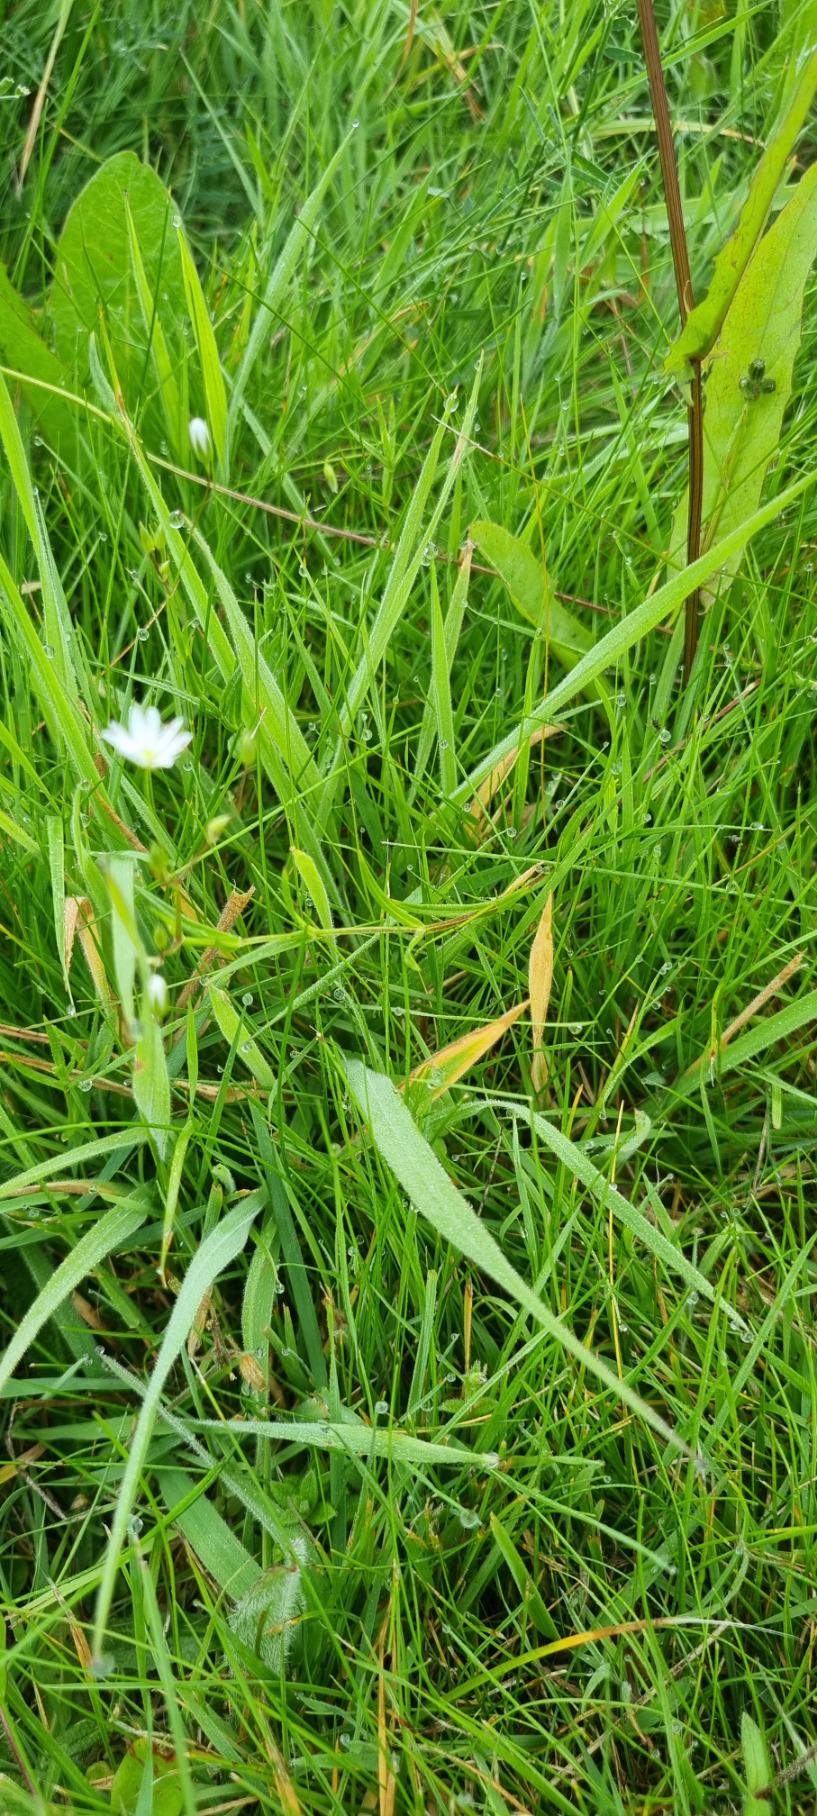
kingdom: Plantae
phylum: Tracheophyta
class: Magnoliopsida
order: Caryophyllales
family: Caryophyllaceae
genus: Stellaria
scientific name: Stellaria graminea
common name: Græsbladet fladstjerne
